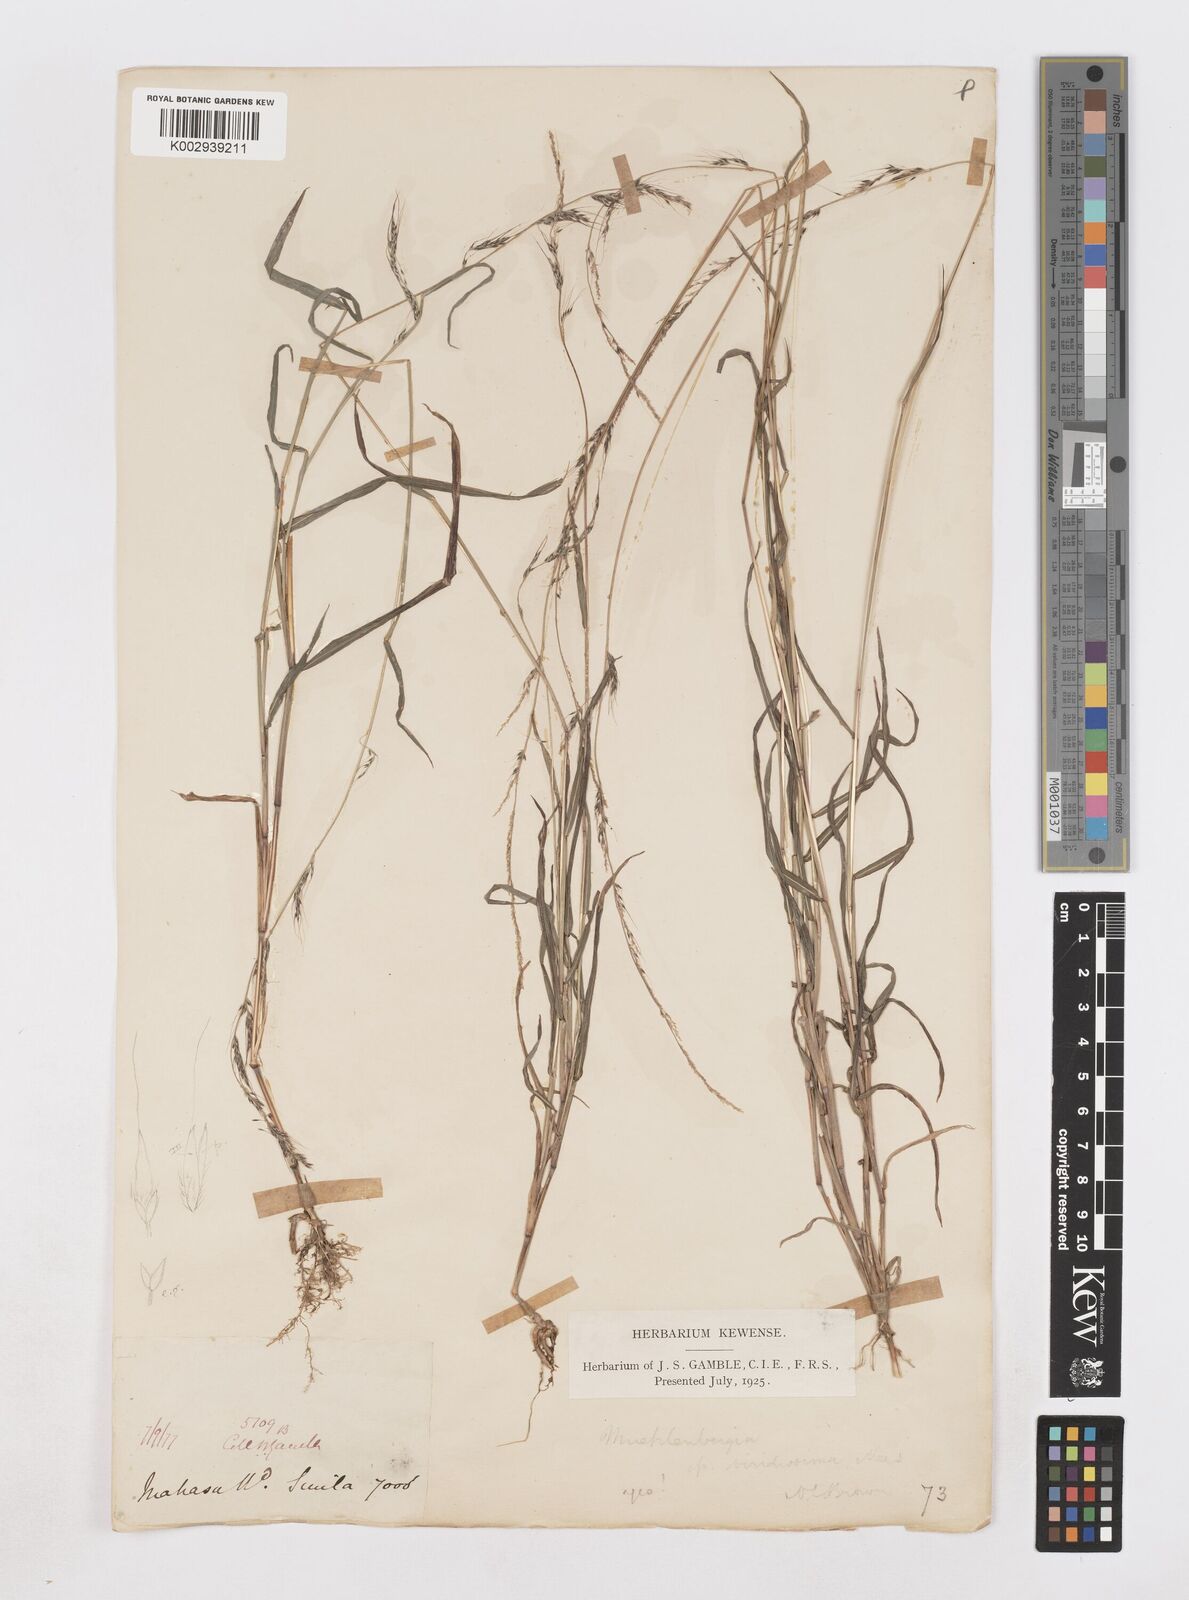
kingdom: Plantae
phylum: Tracheophyta
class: Liliopsida
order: Poales
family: Poaceae
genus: Muhlenbergia
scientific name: Muhlenbergia huegelii
